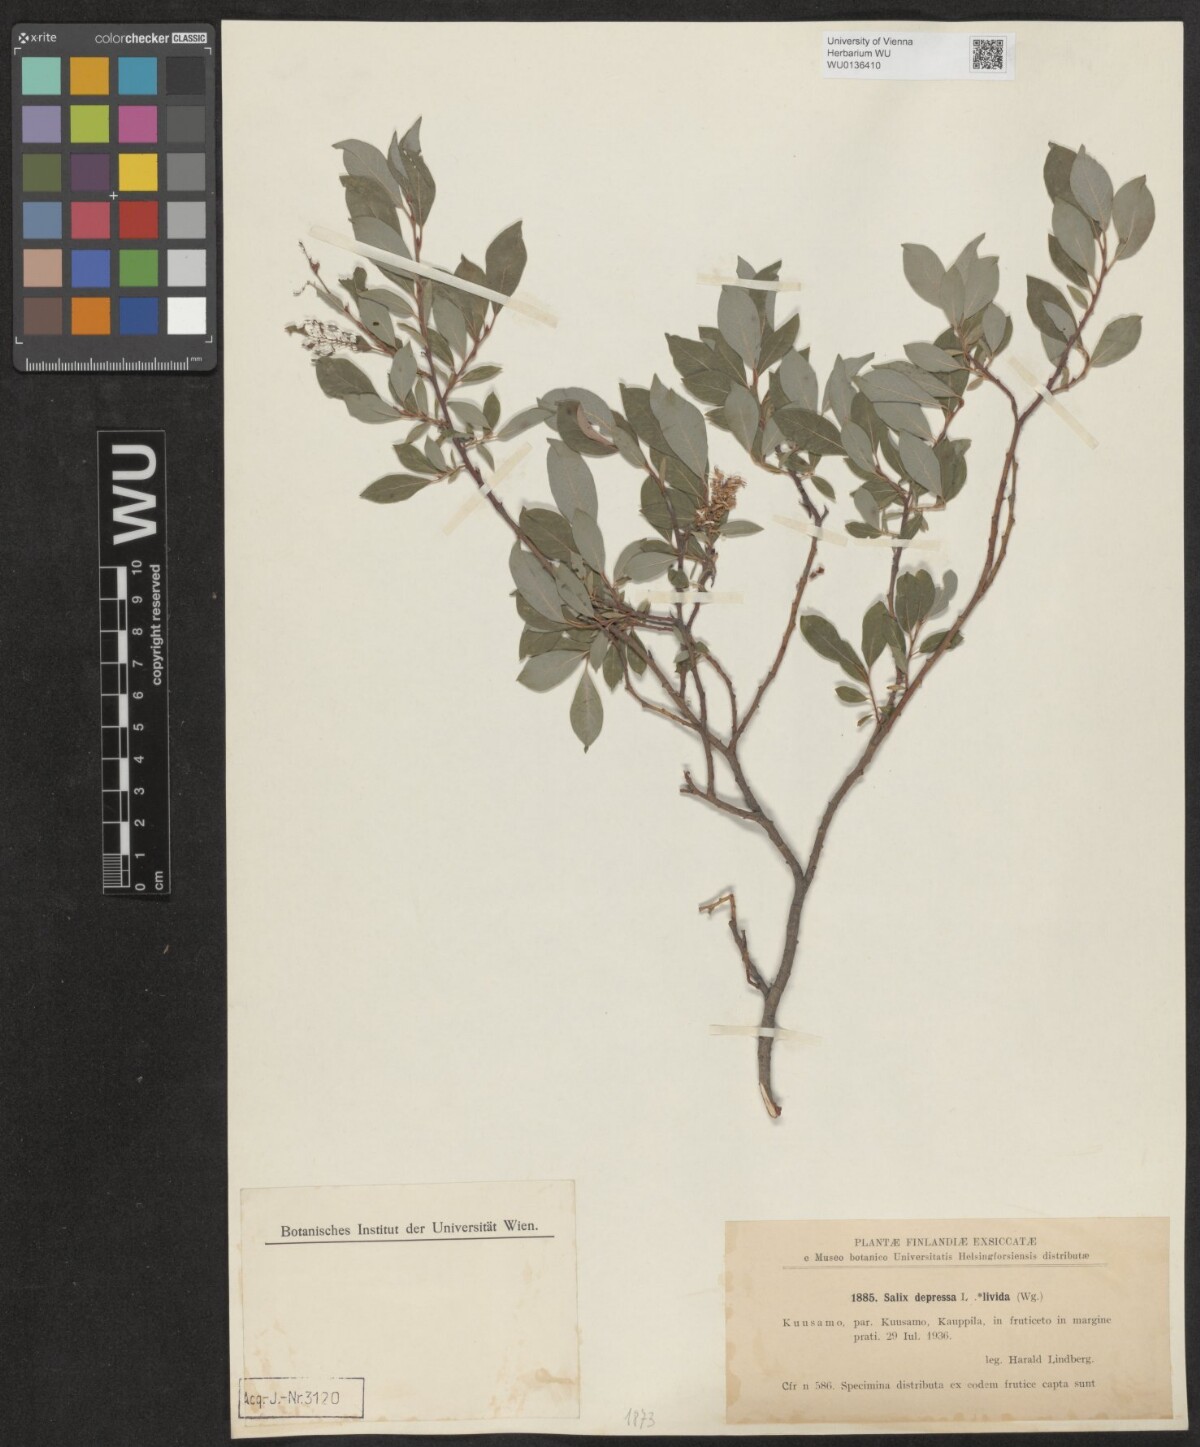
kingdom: Plantae
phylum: Tracheophyta
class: Magnoliopsida
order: Malpighiales
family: Salicaceae
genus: Salix
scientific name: Salix lanata
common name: Woolly willow
